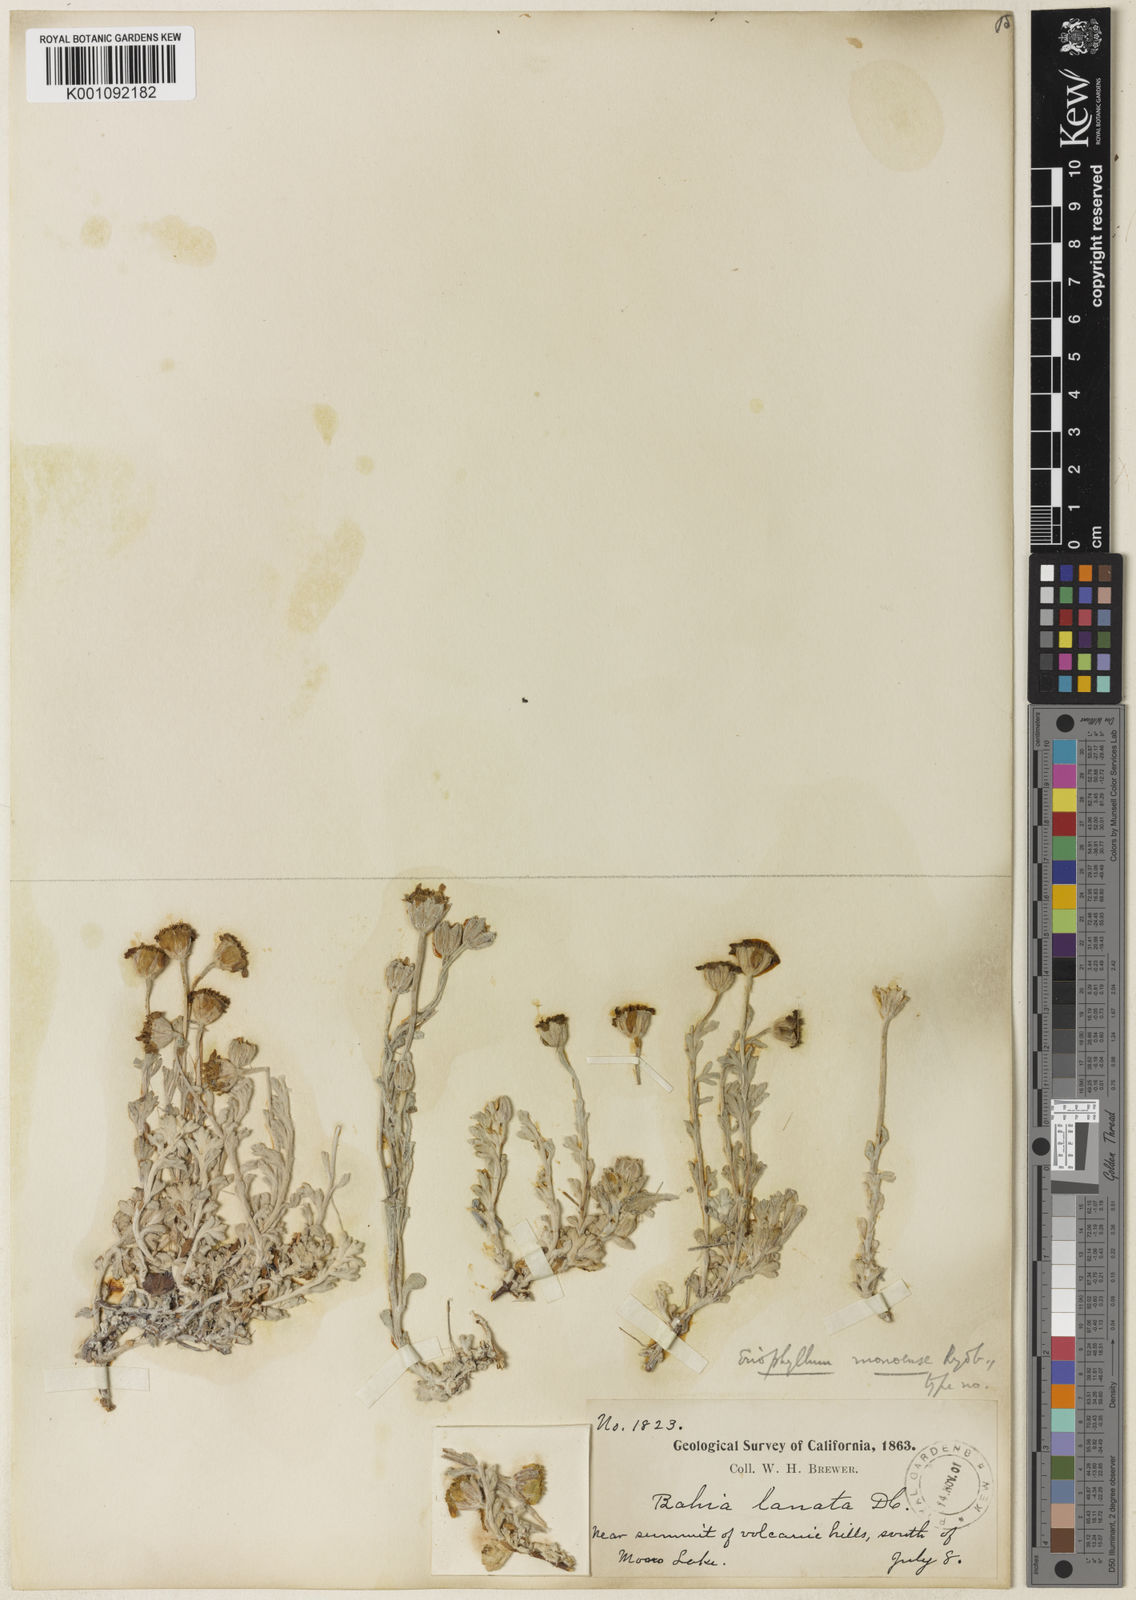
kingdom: Plantae
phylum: Tracheophyta
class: Magnoliopsida
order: Asterales
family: Asteraceae
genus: Eriophyllum
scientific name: Eriophyllum lanatum
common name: Common woolly-sunflower
